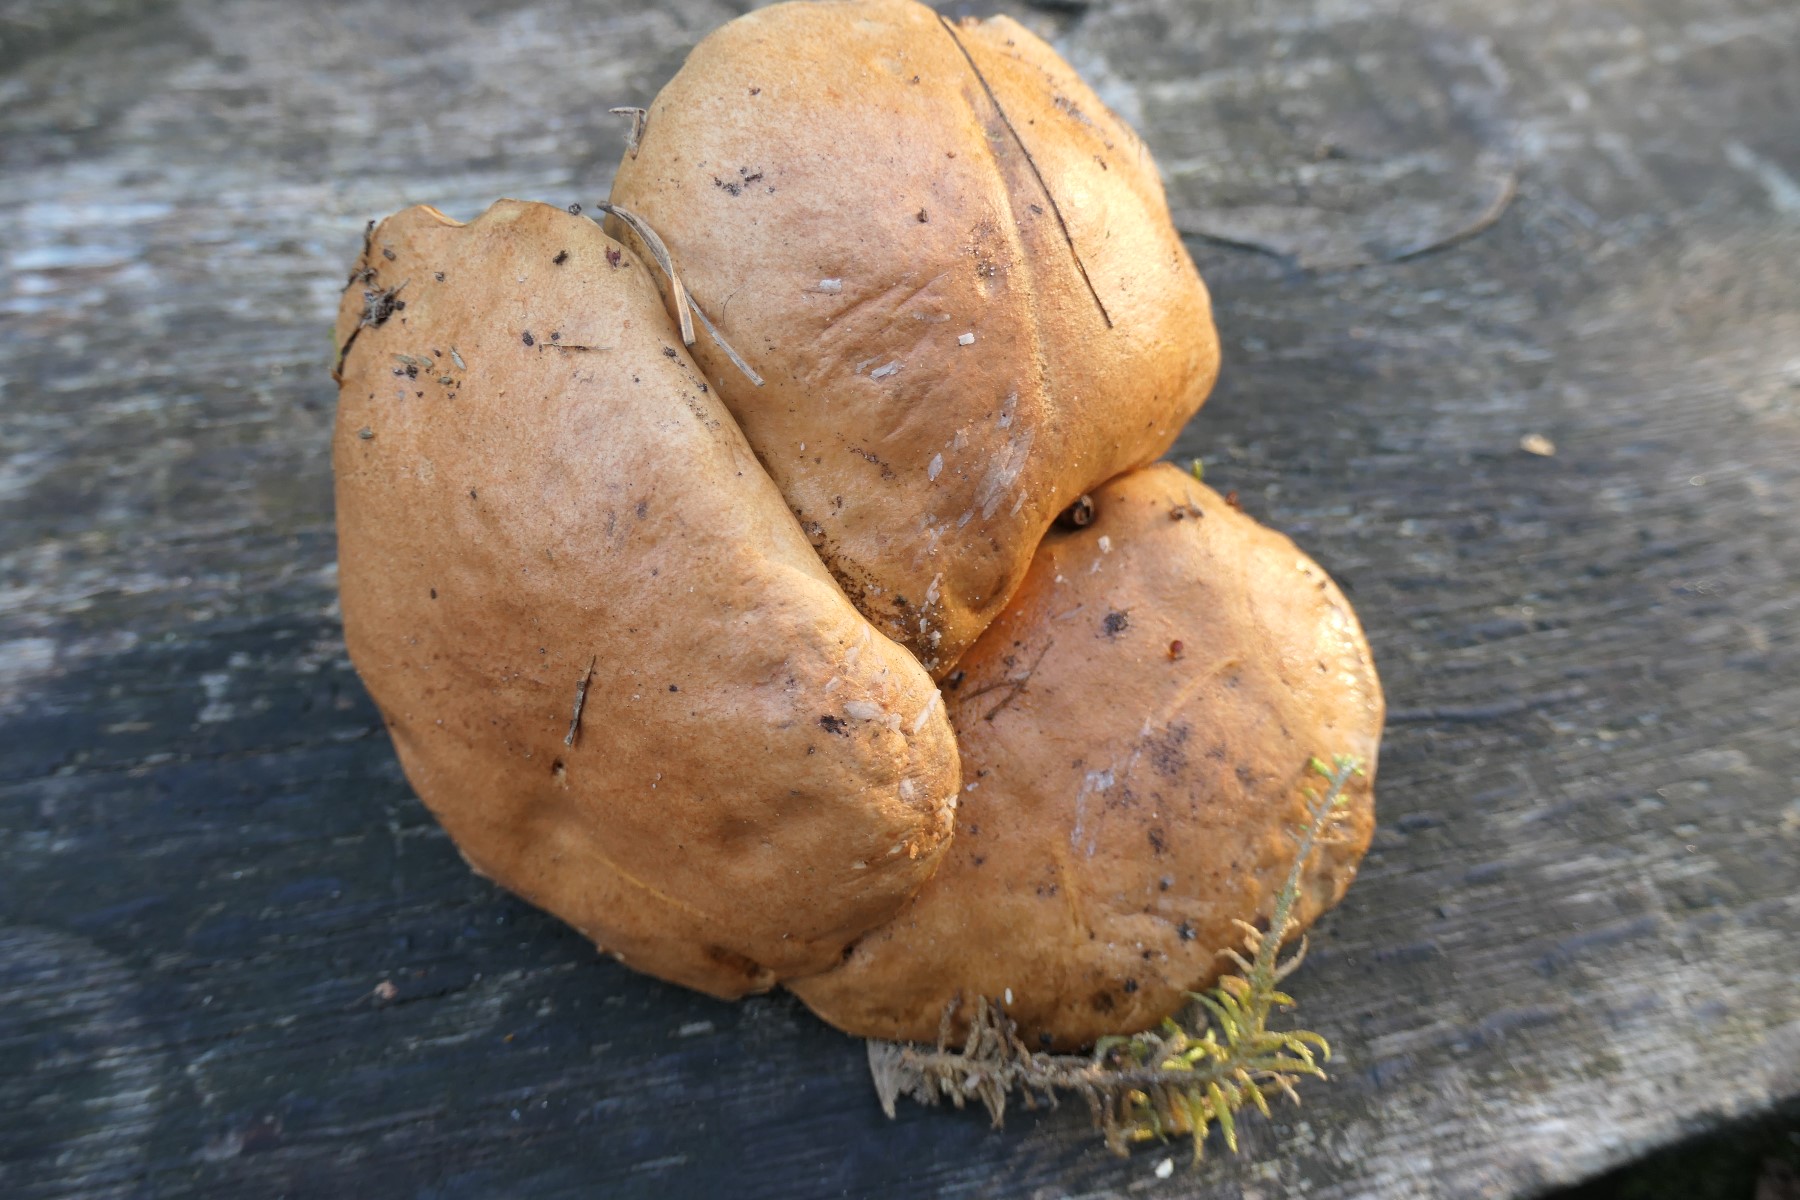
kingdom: Fungi
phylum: Basidiomycota
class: Agaricomycetes
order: Boletales
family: Suillaceae
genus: Suillus
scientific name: Suillus bovinus
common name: grovporet slimrørhat
